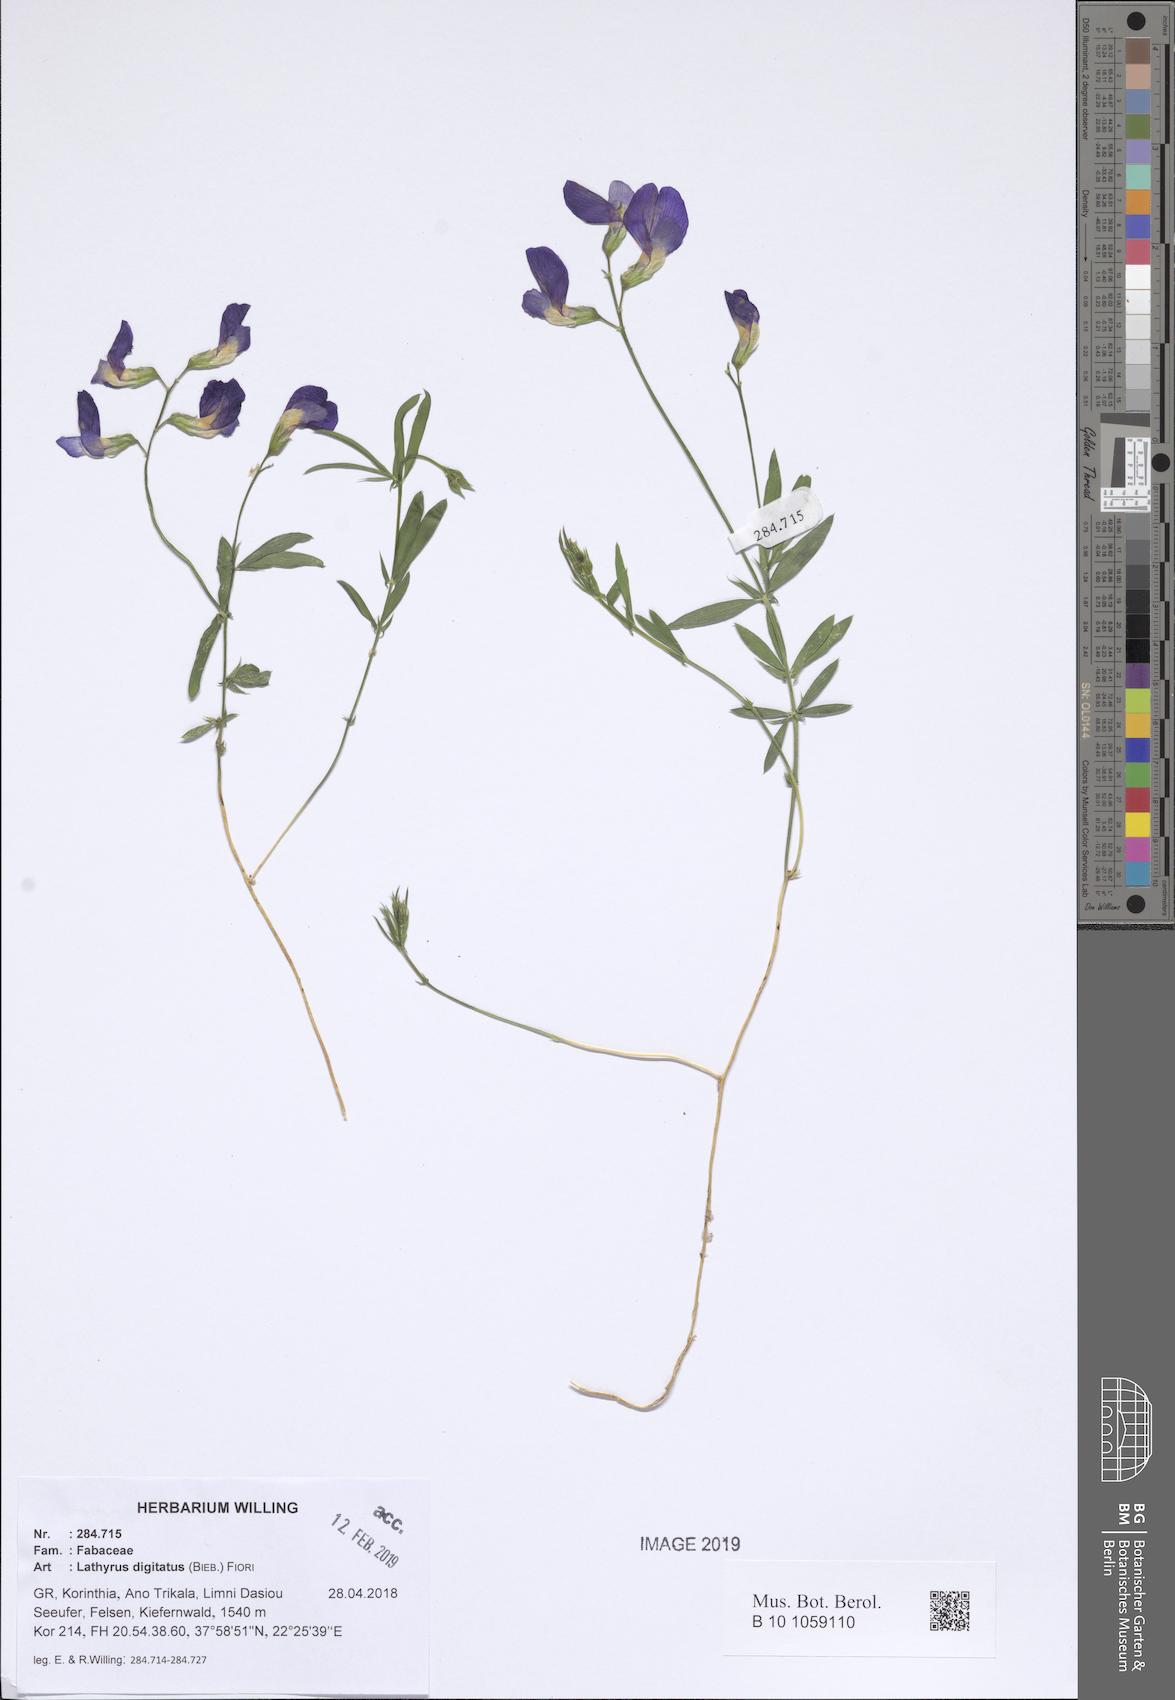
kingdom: Plantae
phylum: Tracheophyta
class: Magnoliopsida
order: Fabales
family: Fabaceae
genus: Lathyrus
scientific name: Lathyrus digitatus
